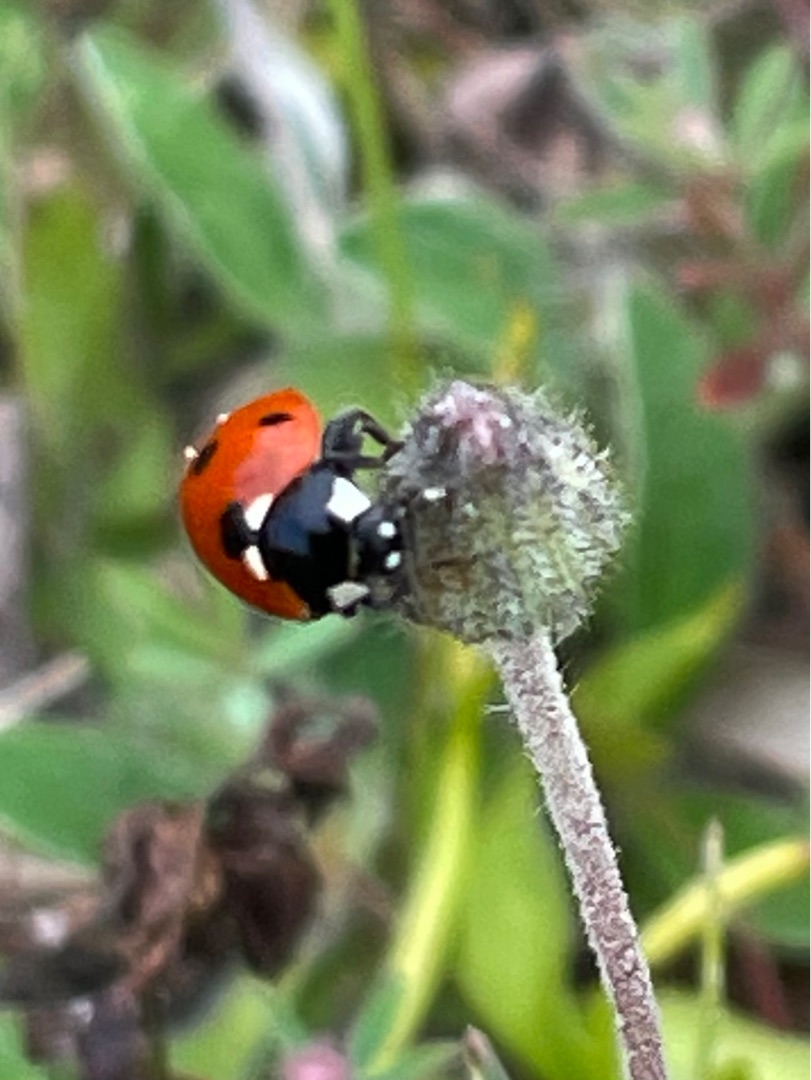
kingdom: Animalia
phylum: Arthropoda
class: Insecta
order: Coleoptera
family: Coccinellidae
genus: Coccinella
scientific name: Coccinella septempunctata
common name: Syvplettet mariehøne
